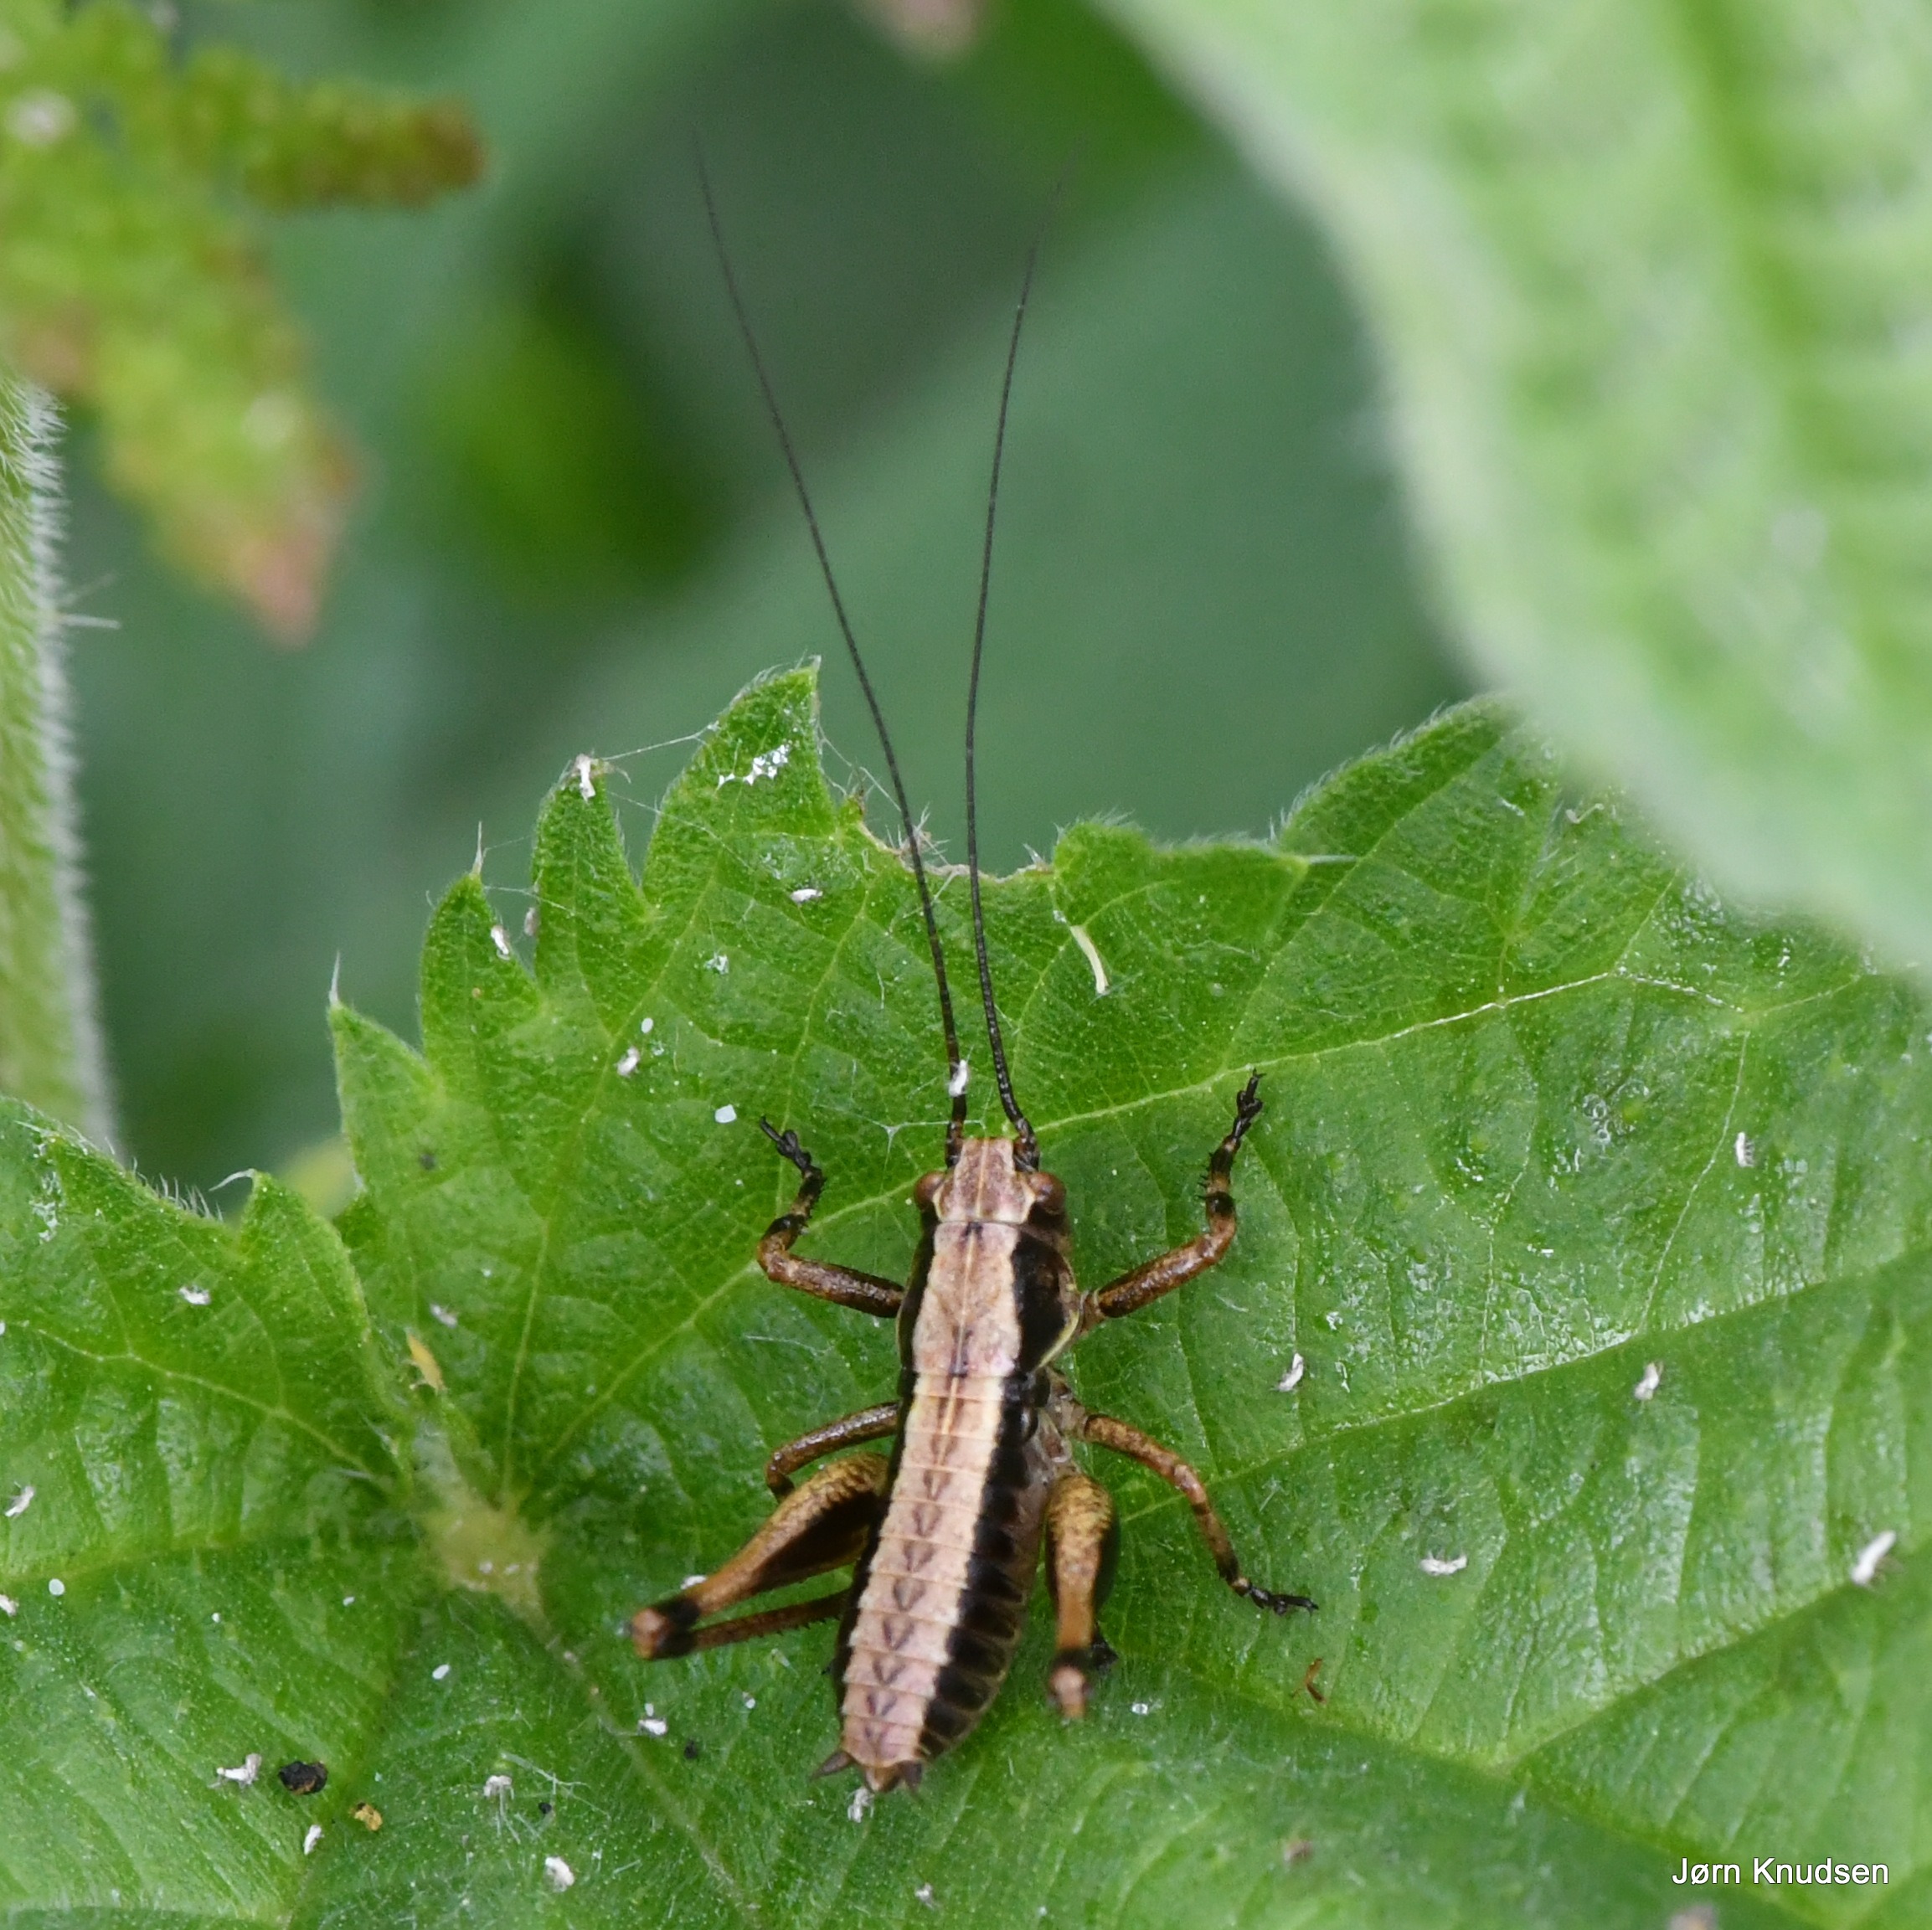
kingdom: Animalia
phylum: Arthropoda
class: Insecta
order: Orthoptera
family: Tettigoniidae
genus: Pholidoptera
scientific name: Pholidoptera griseoaptera
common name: Buskgræshoppe
